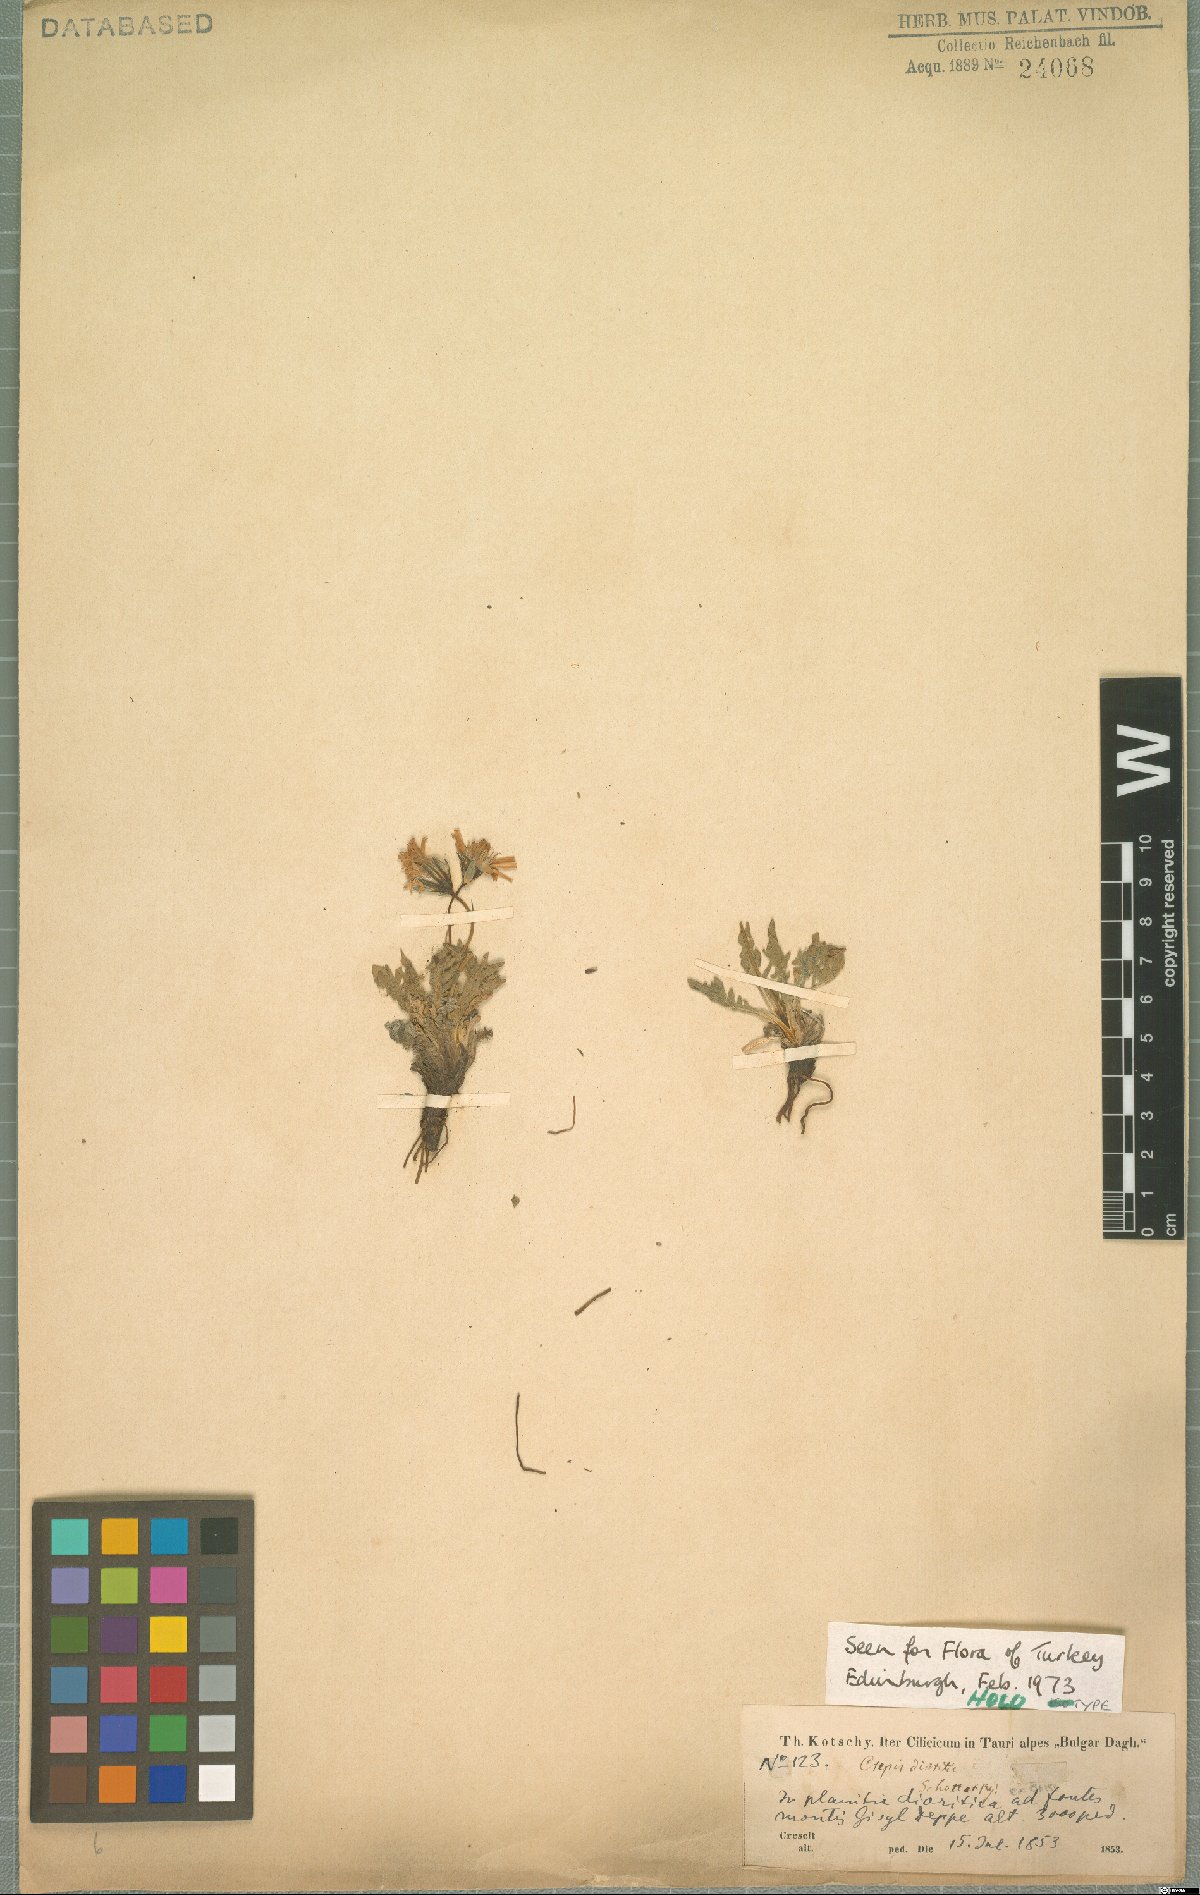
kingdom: Plantae
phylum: Tracheophyta
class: Magnoliopsida
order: Asterales
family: Asteraceae
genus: Crepis
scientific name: Crepis dioritica
